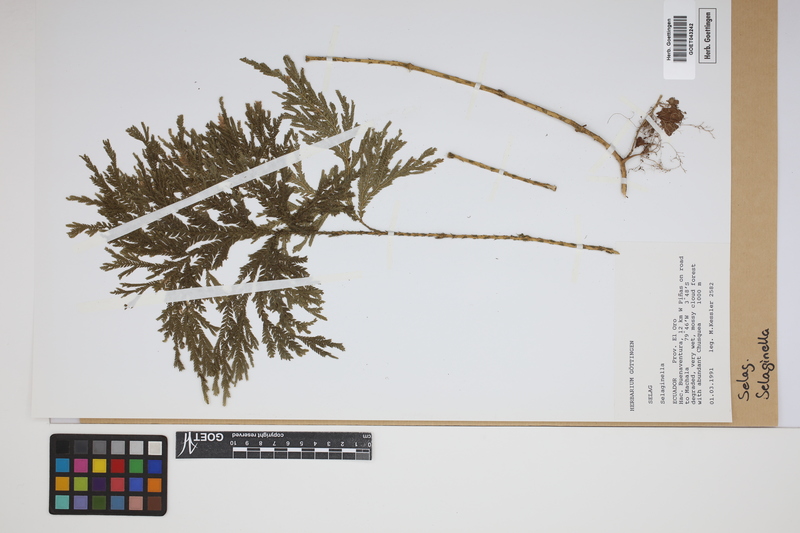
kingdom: Plantae
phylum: Tracheophyta
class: Lycopodiopsida
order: Selaginellales
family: Selaginellaceae
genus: Selaginella
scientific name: Selaginella
